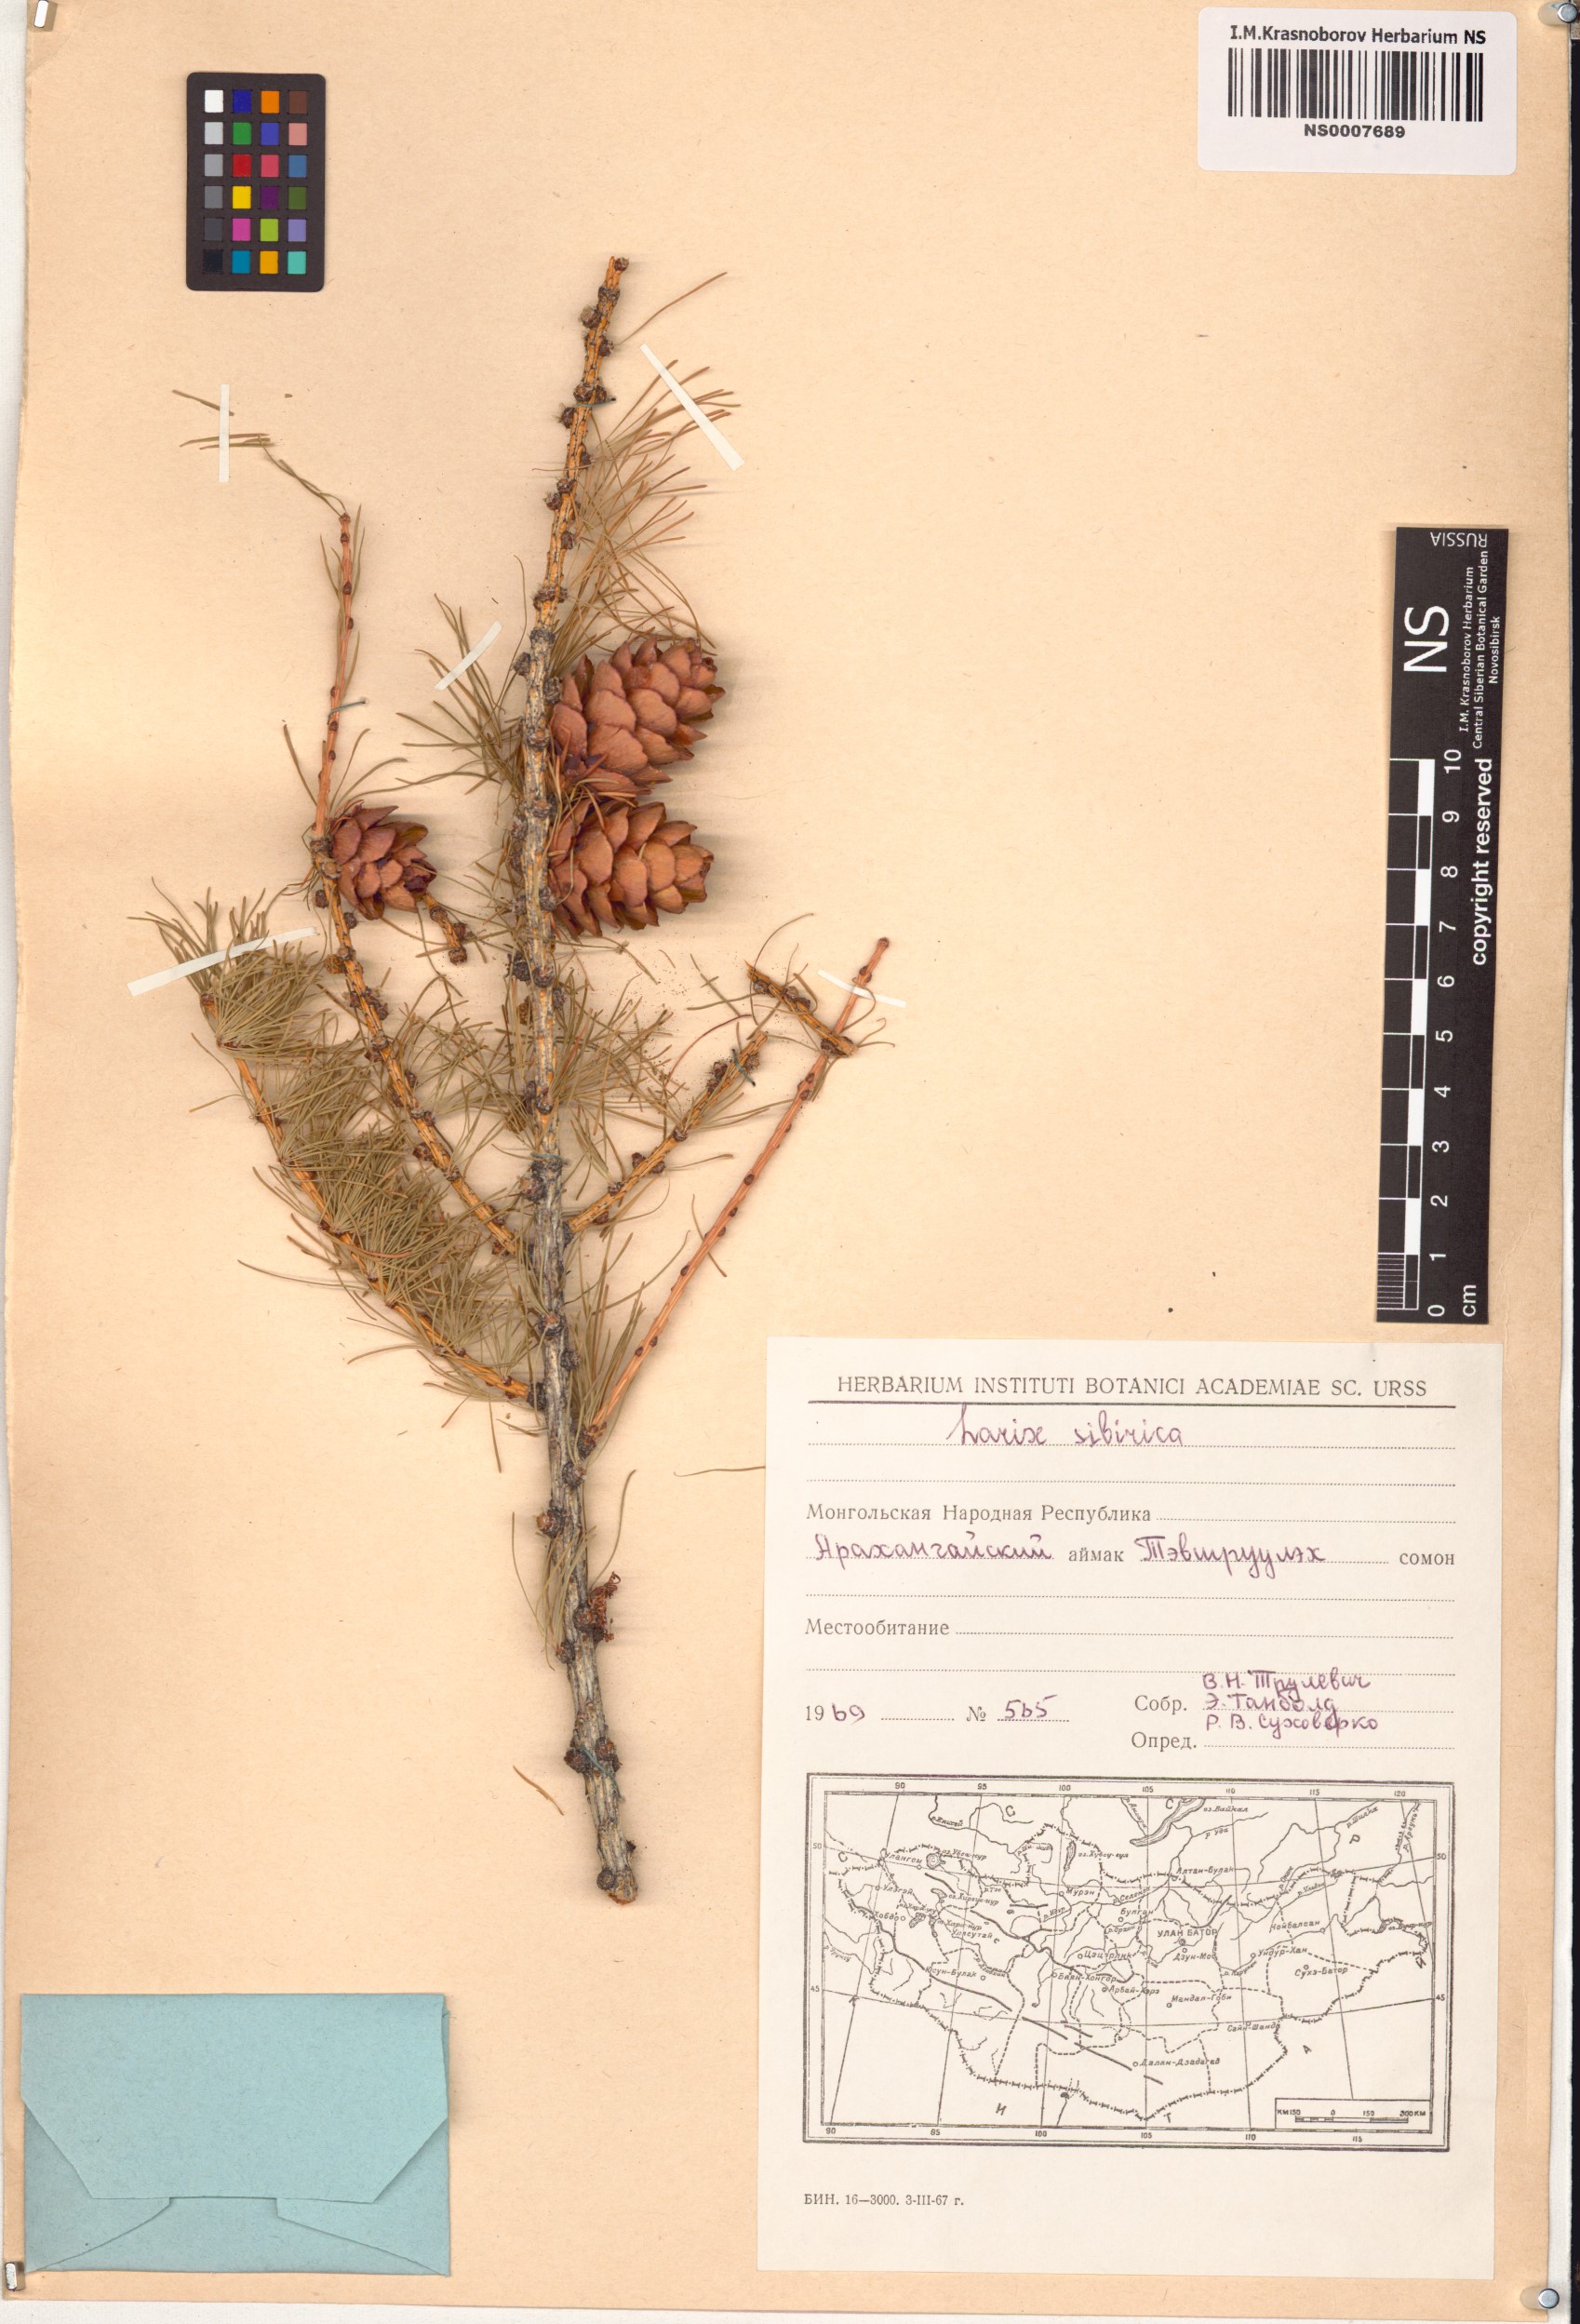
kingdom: Plantae
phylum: Tracheophyta
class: Pinopsida
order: Pinales
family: Pinaceae
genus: Larix
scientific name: Larix sibirica
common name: Siberian larch
